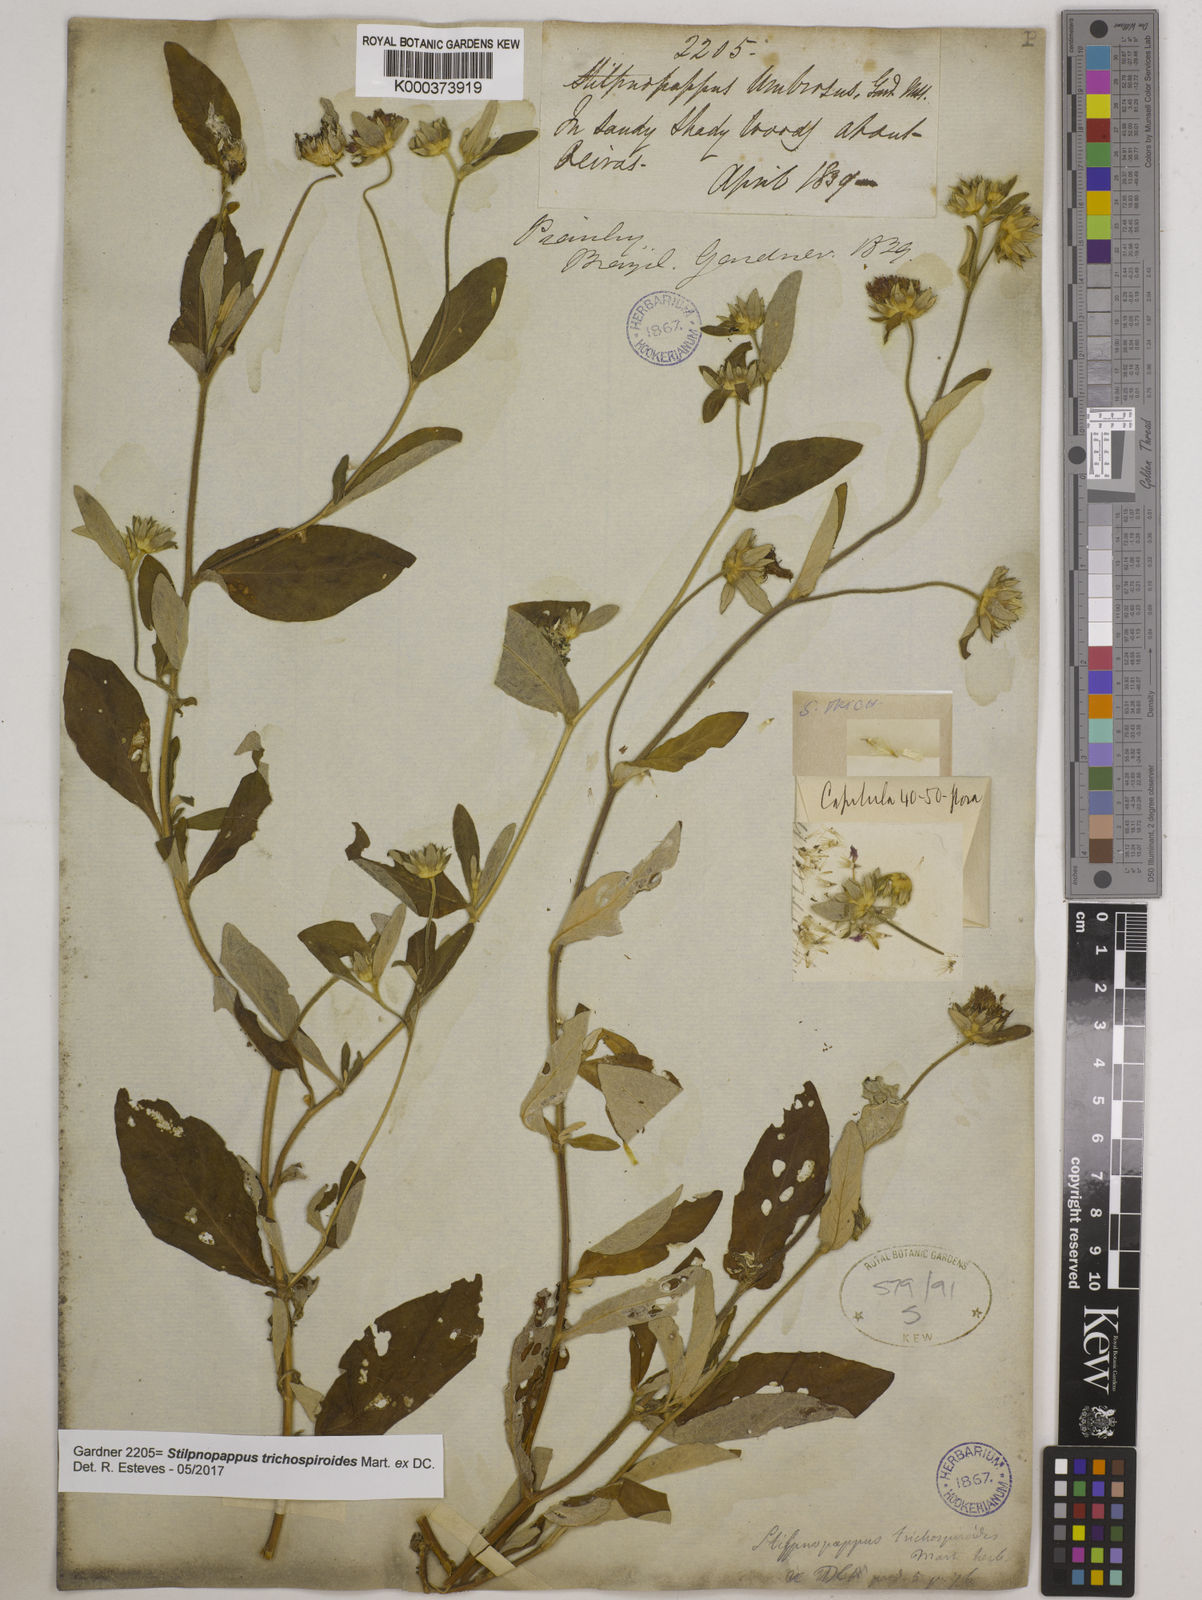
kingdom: Plantae
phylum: Tracheophyta
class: Magnoliopsida
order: Asterales
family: Asteraceae
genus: Stilpnopappus
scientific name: Stilpnopappus
